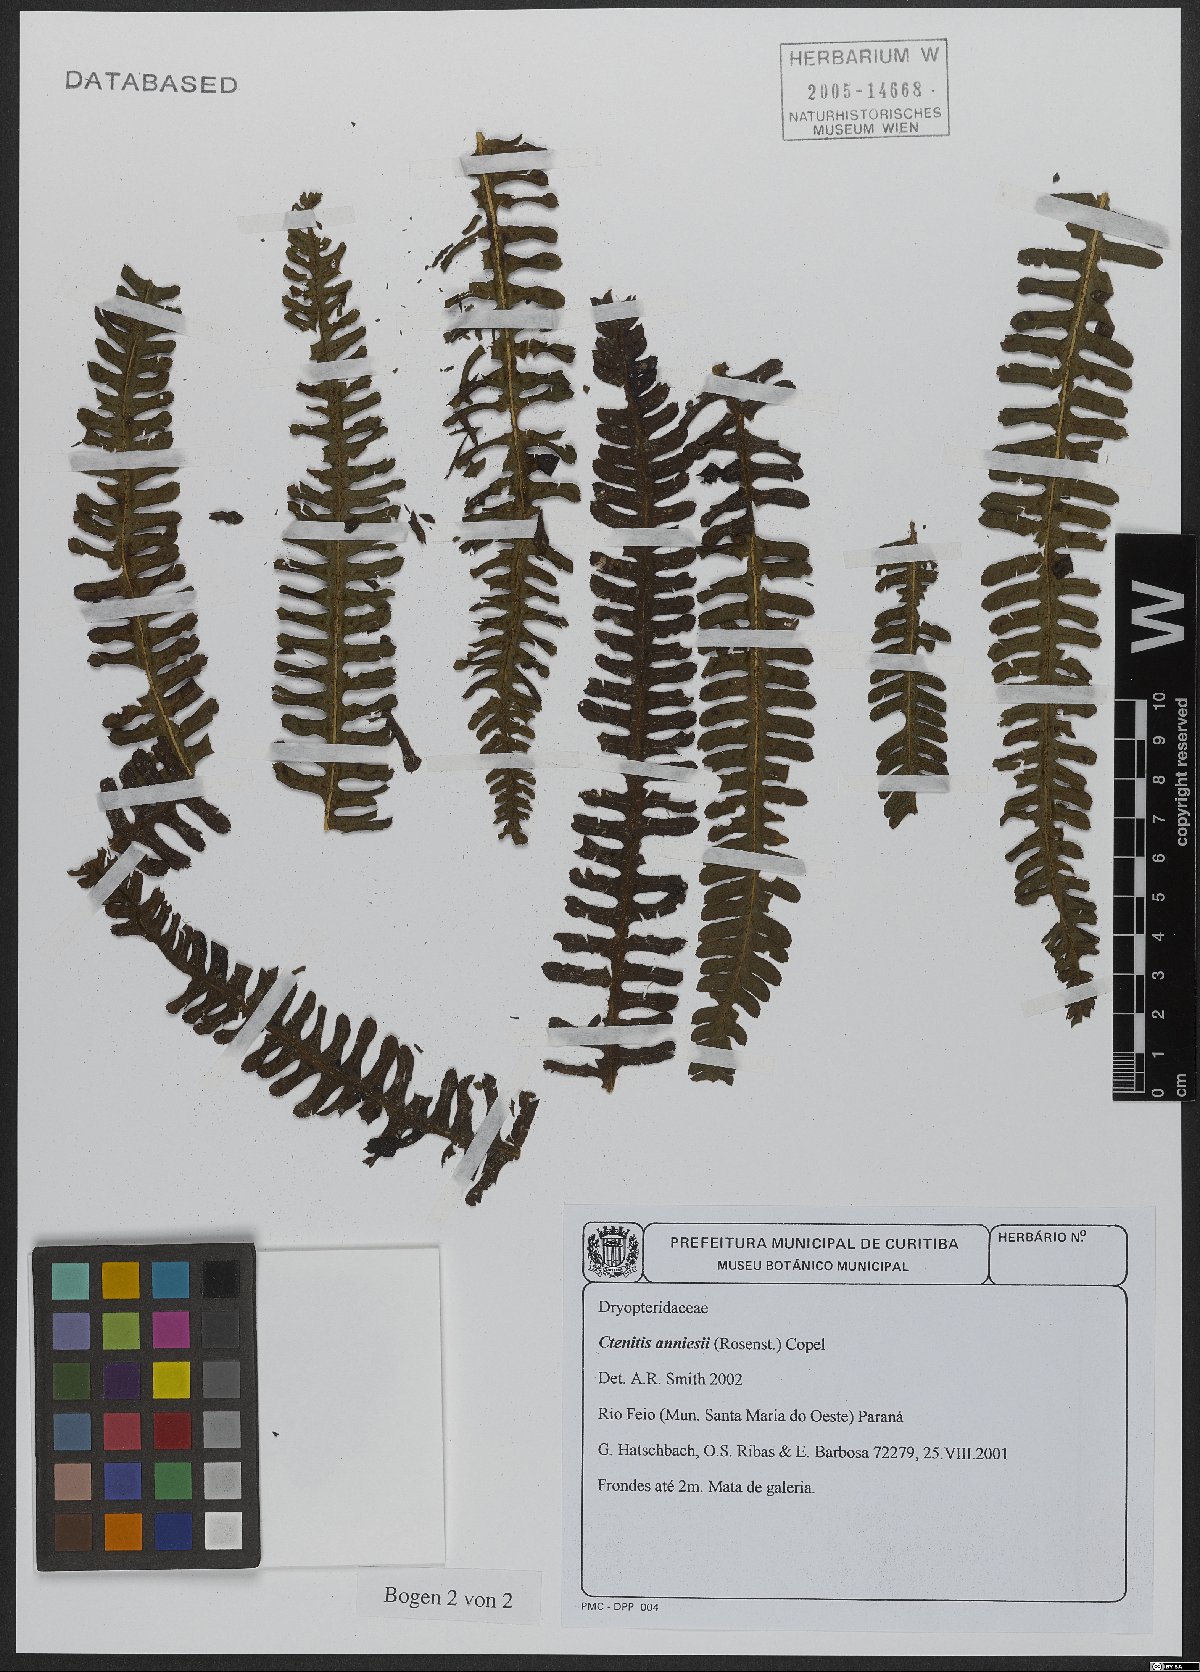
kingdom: Plantae
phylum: Tracheophyta
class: Polypodiopsida
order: Polypodiales
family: Dryopteridaceae
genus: Ctenitis
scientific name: Ctenitis anniesii
